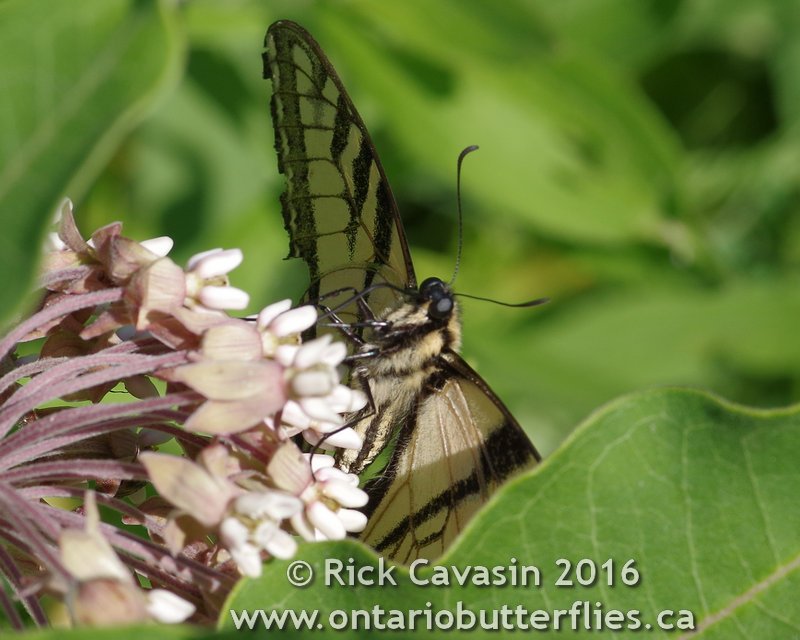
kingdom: Animalia
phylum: Arthropoda
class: Insecta
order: Lepidoptera
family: Papilionidae
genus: Pterourus
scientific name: Pterourus glaucus
